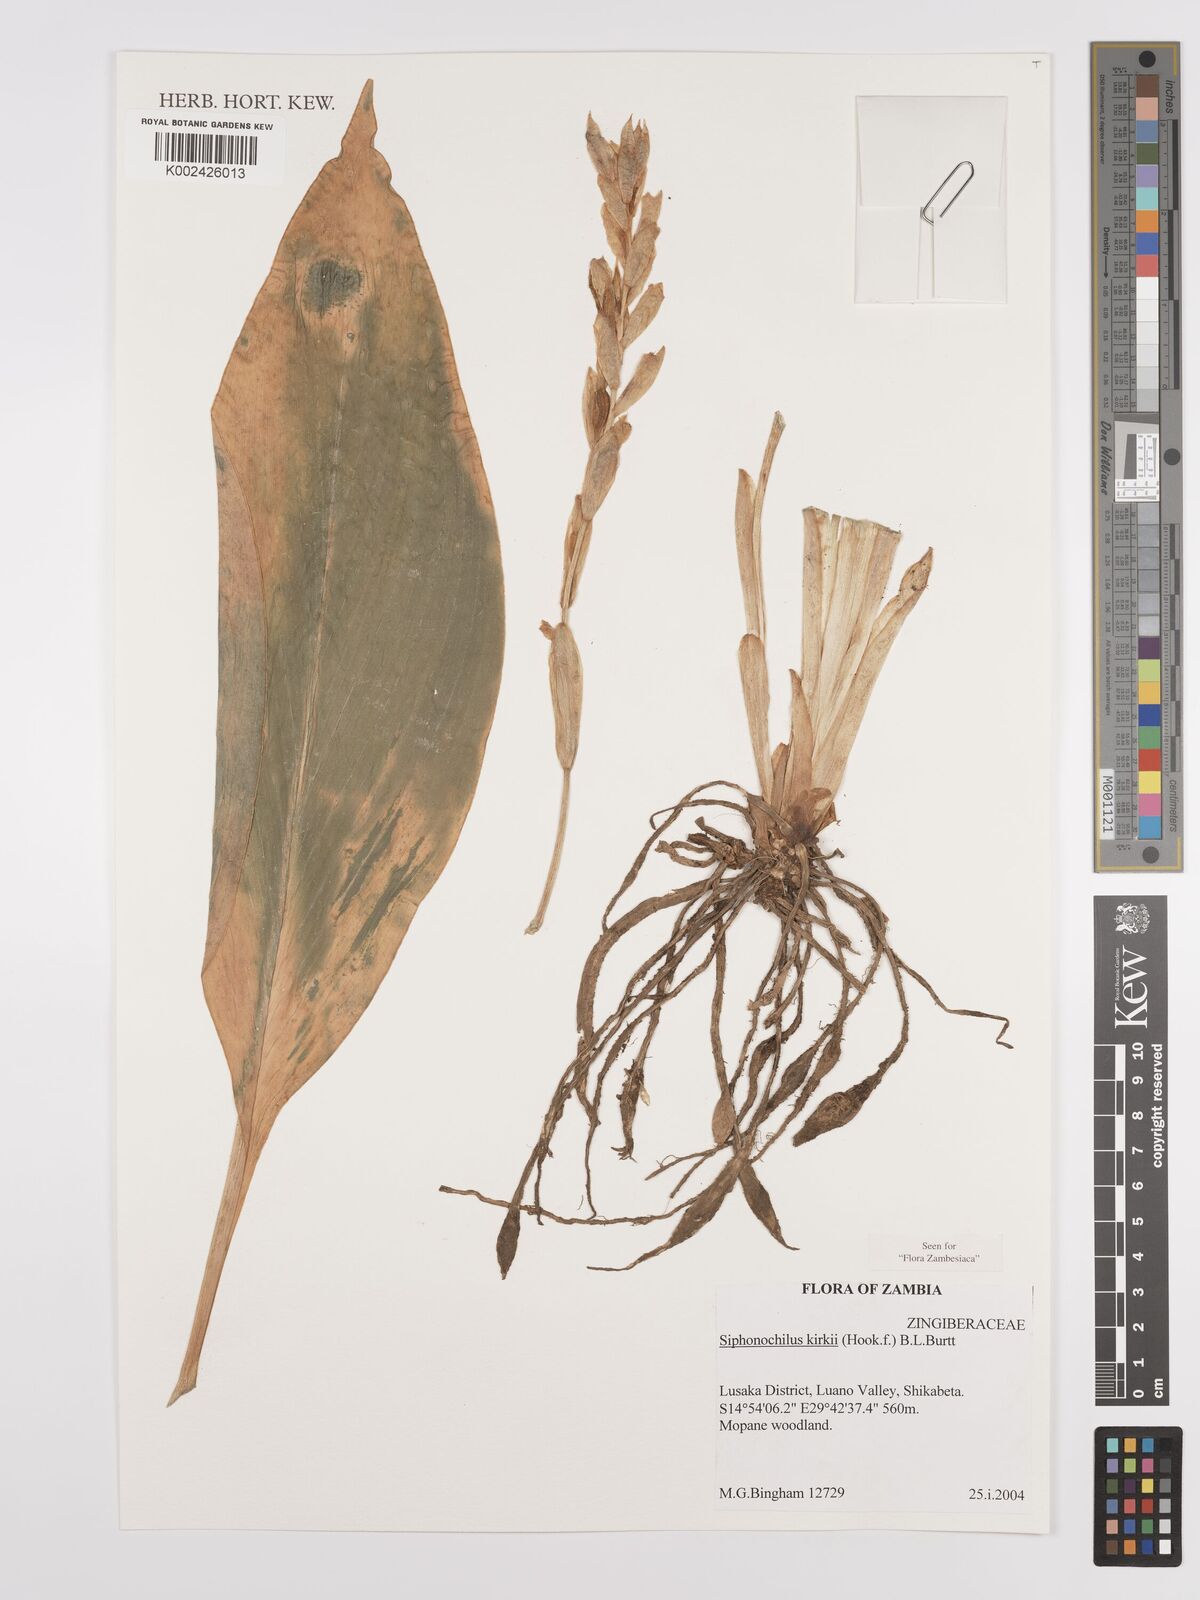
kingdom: Plantae
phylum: Tracheophyta
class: Liliopsida
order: Zingiberales
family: Zingiberaceae
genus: Siphonochilus
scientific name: Siphonochilus kirkii
